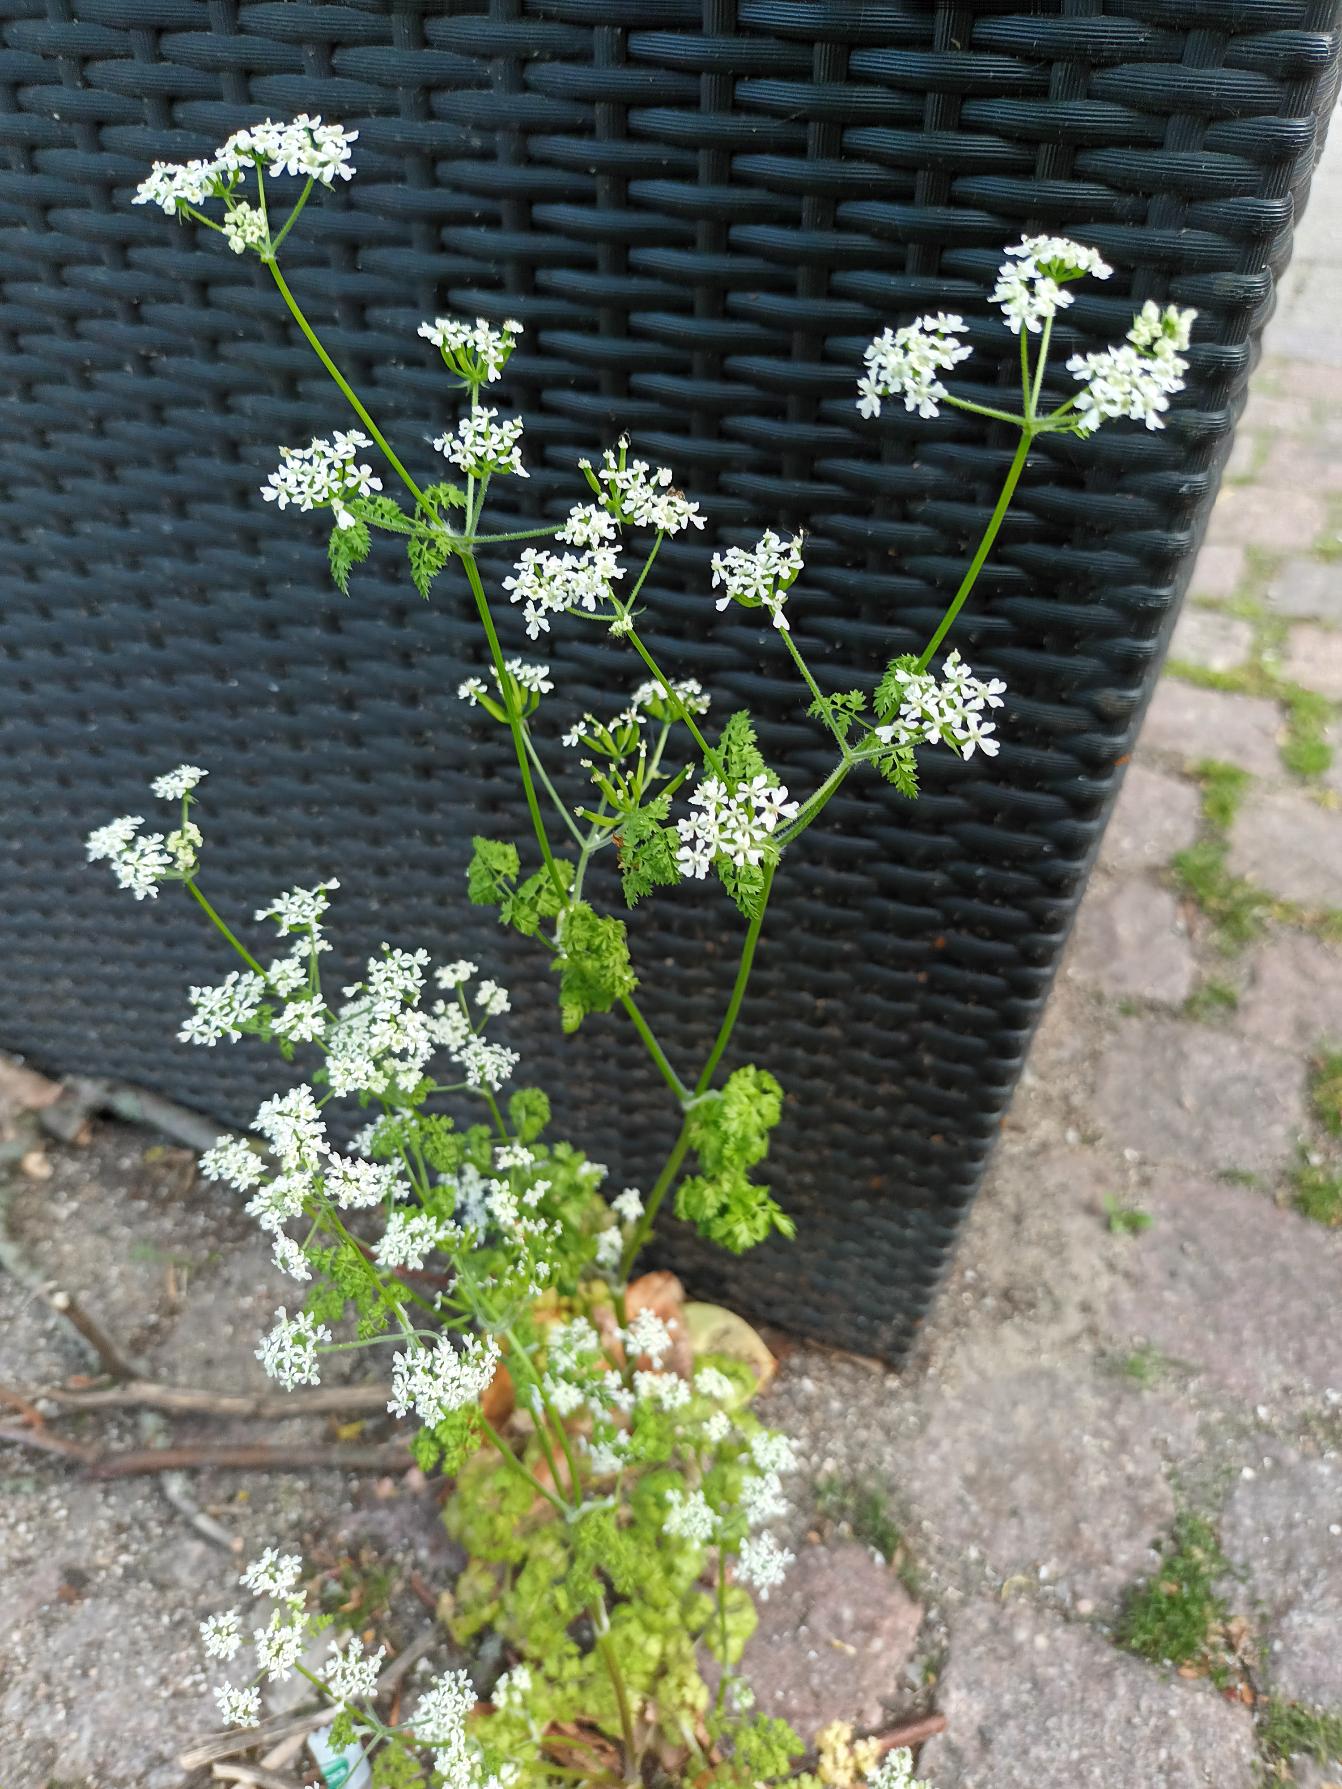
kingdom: Plantae
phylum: Tracheophyta
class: Magnoliopsida
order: Apiales
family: Apiaceae
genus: Anthriscus
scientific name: Anthriscus cerefolium
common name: Have-kørvel
